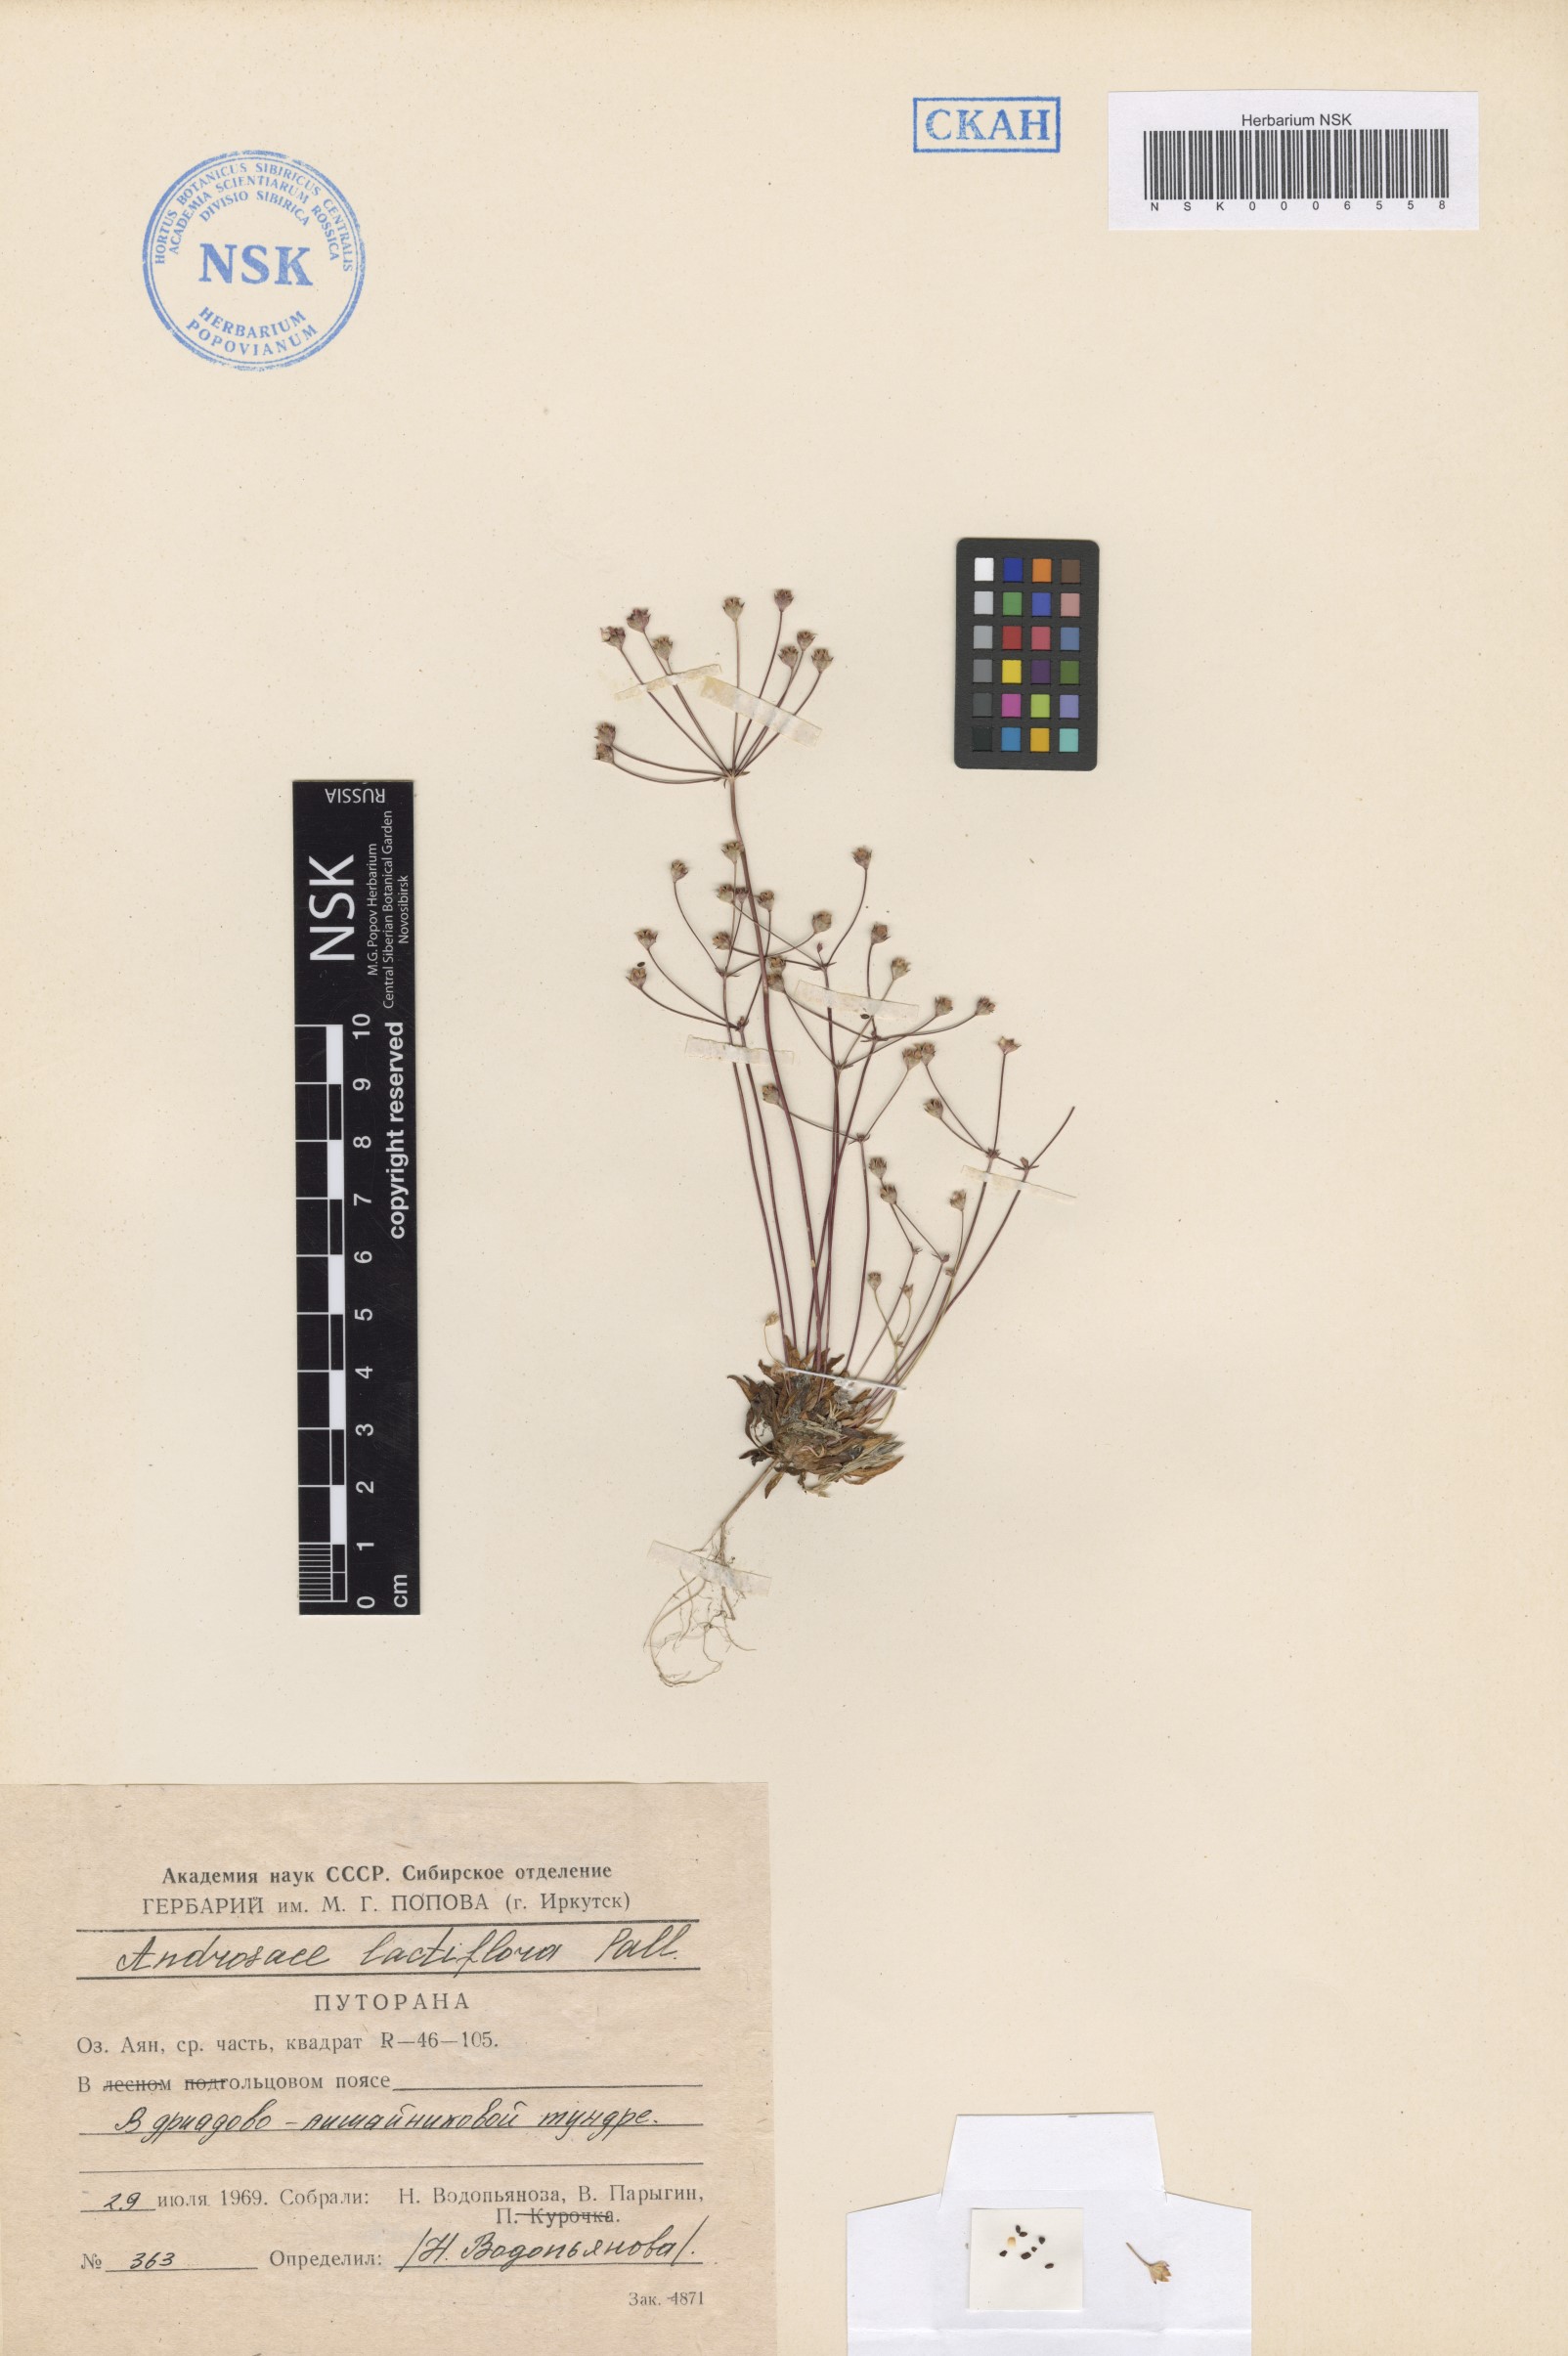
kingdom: Plantae
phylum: Tracheophyta
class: Magnoliopsida
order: Ericales
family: Primulaceae
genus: Androsace
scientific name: Androsace septentrionalis
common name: Hairy northern fairy-candelabra
